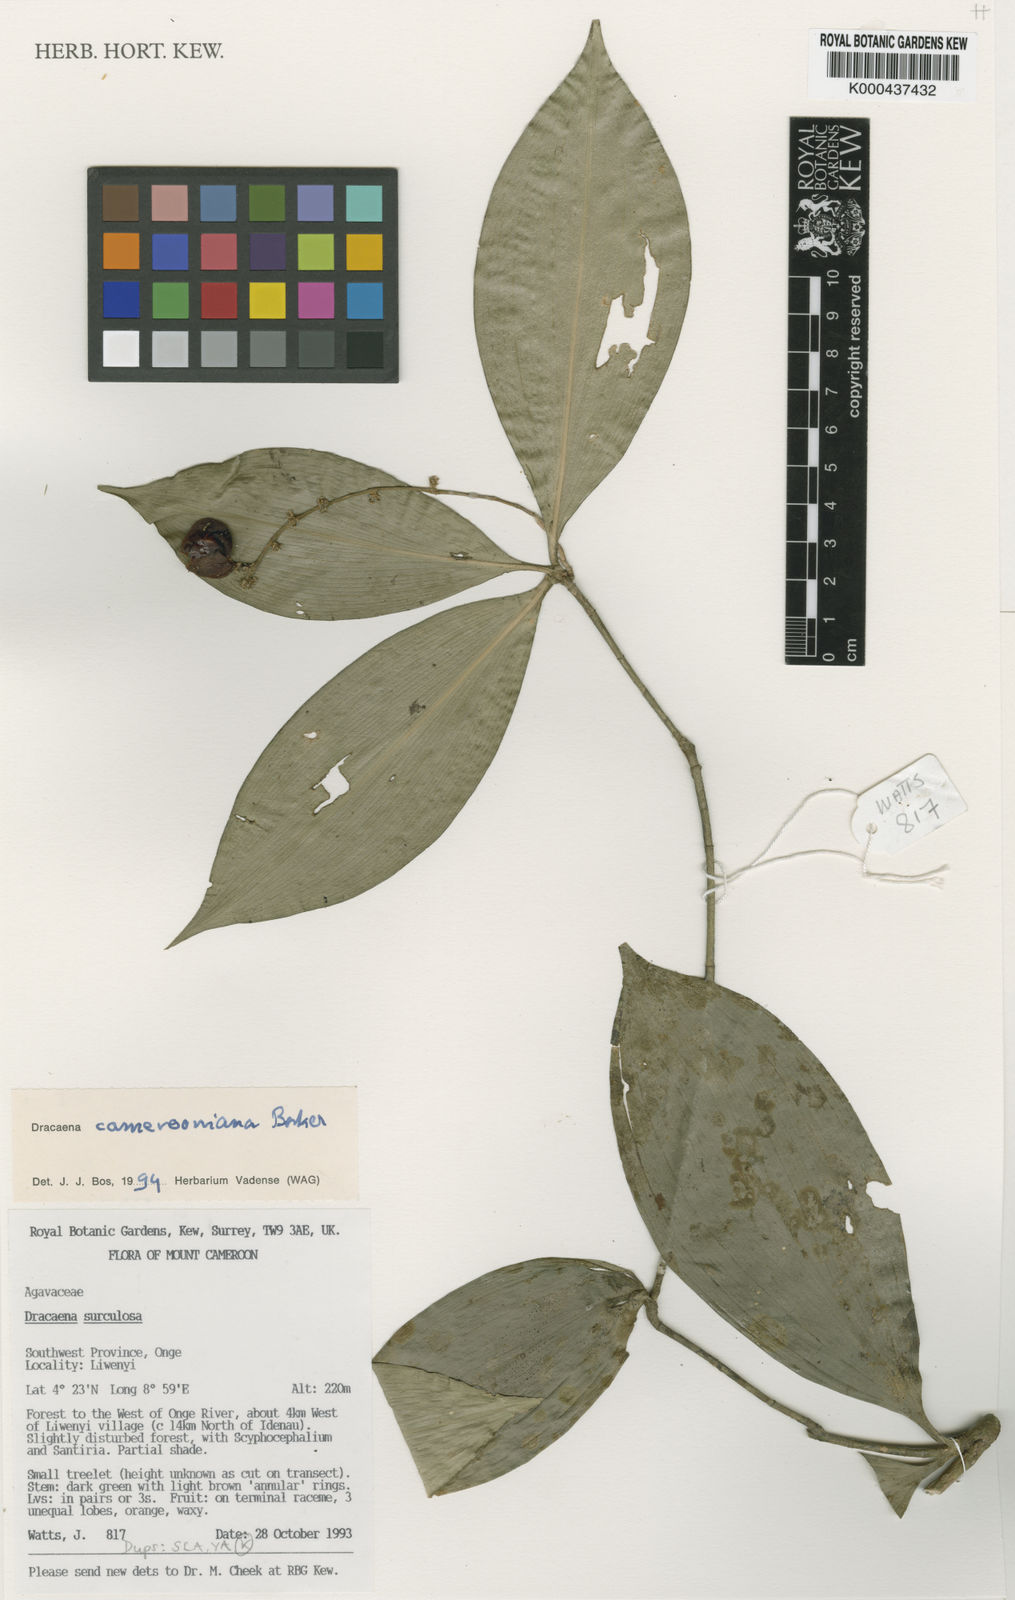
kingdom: Plantae
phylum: Tracheophyta
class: Liliopsida
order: Asparagales
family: Asparagaceae
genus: Dracaena
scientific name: Dracaena camerooniana
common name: Dragon tree
